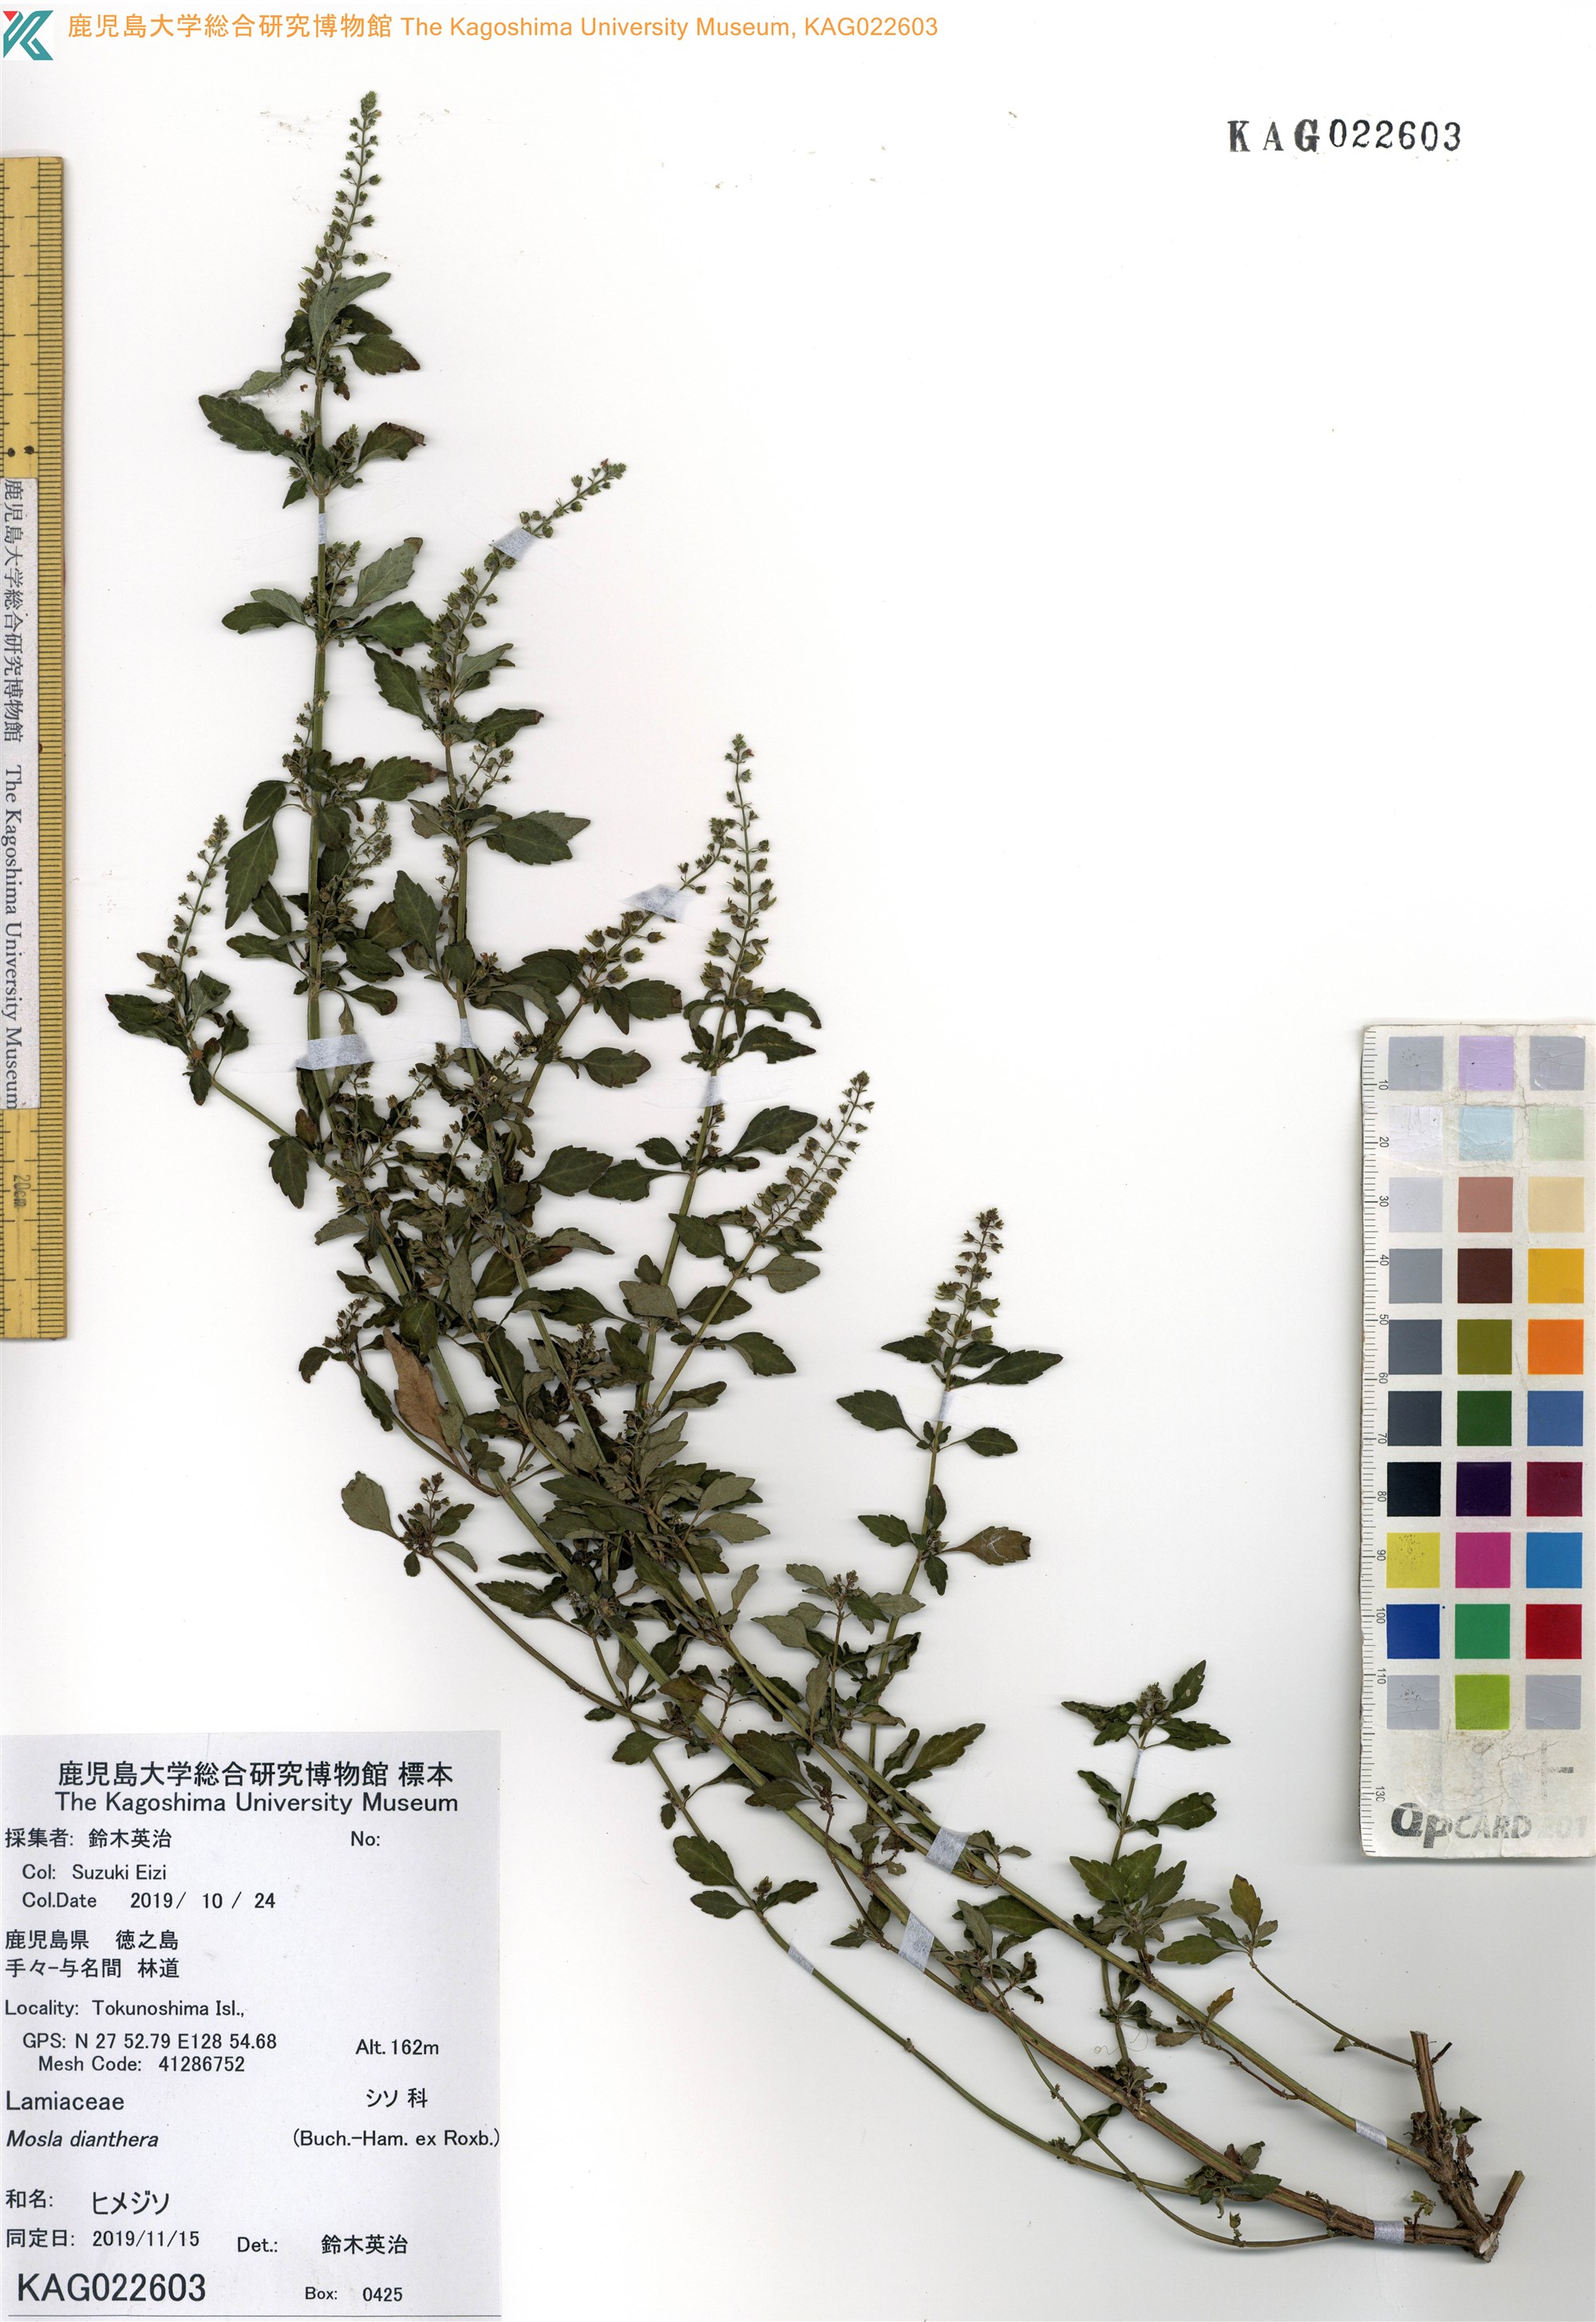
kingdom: Plantae
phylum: Tracheophyta
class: Magnoliopsida
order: Lamiales
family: Lamiaceae
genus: Mosla
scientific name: Mosla dianthera
